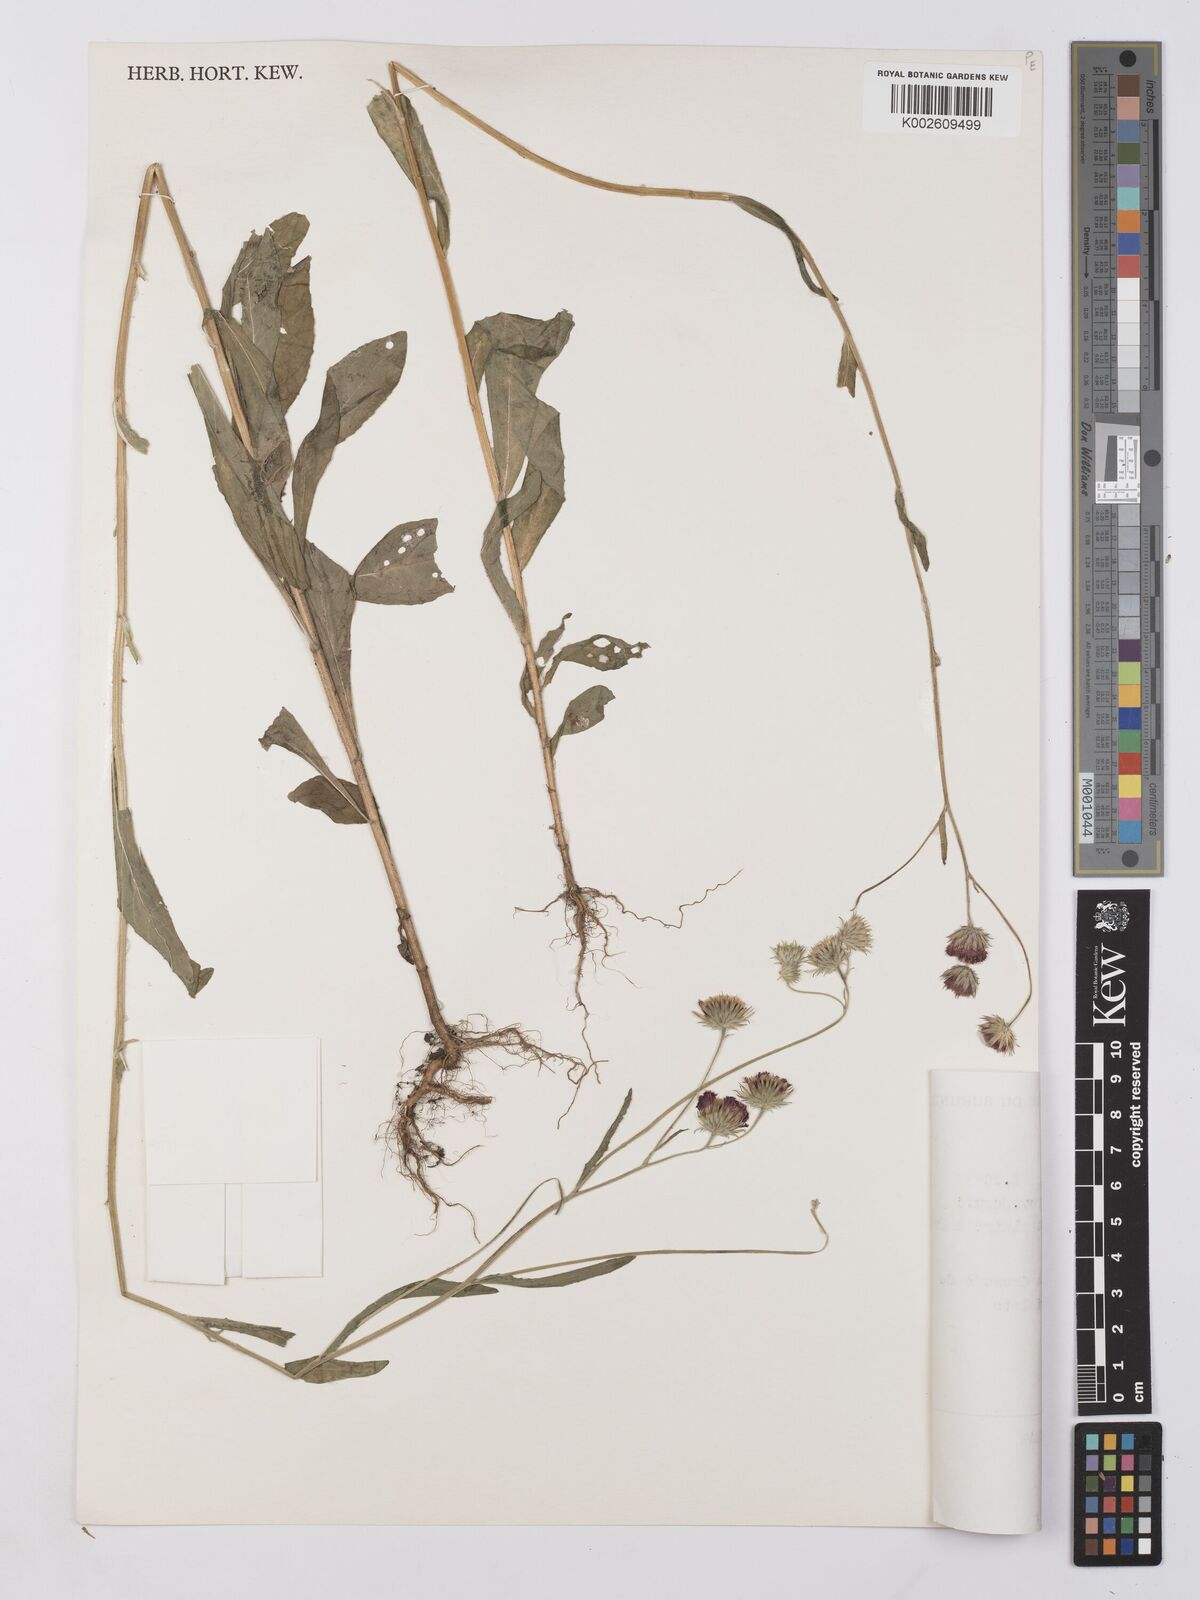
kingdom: Plantae
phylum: Tracheophyta
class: Magnoliopsida
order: Asterales
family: Asteraceae
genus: Vernonia
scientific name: Vernonia
